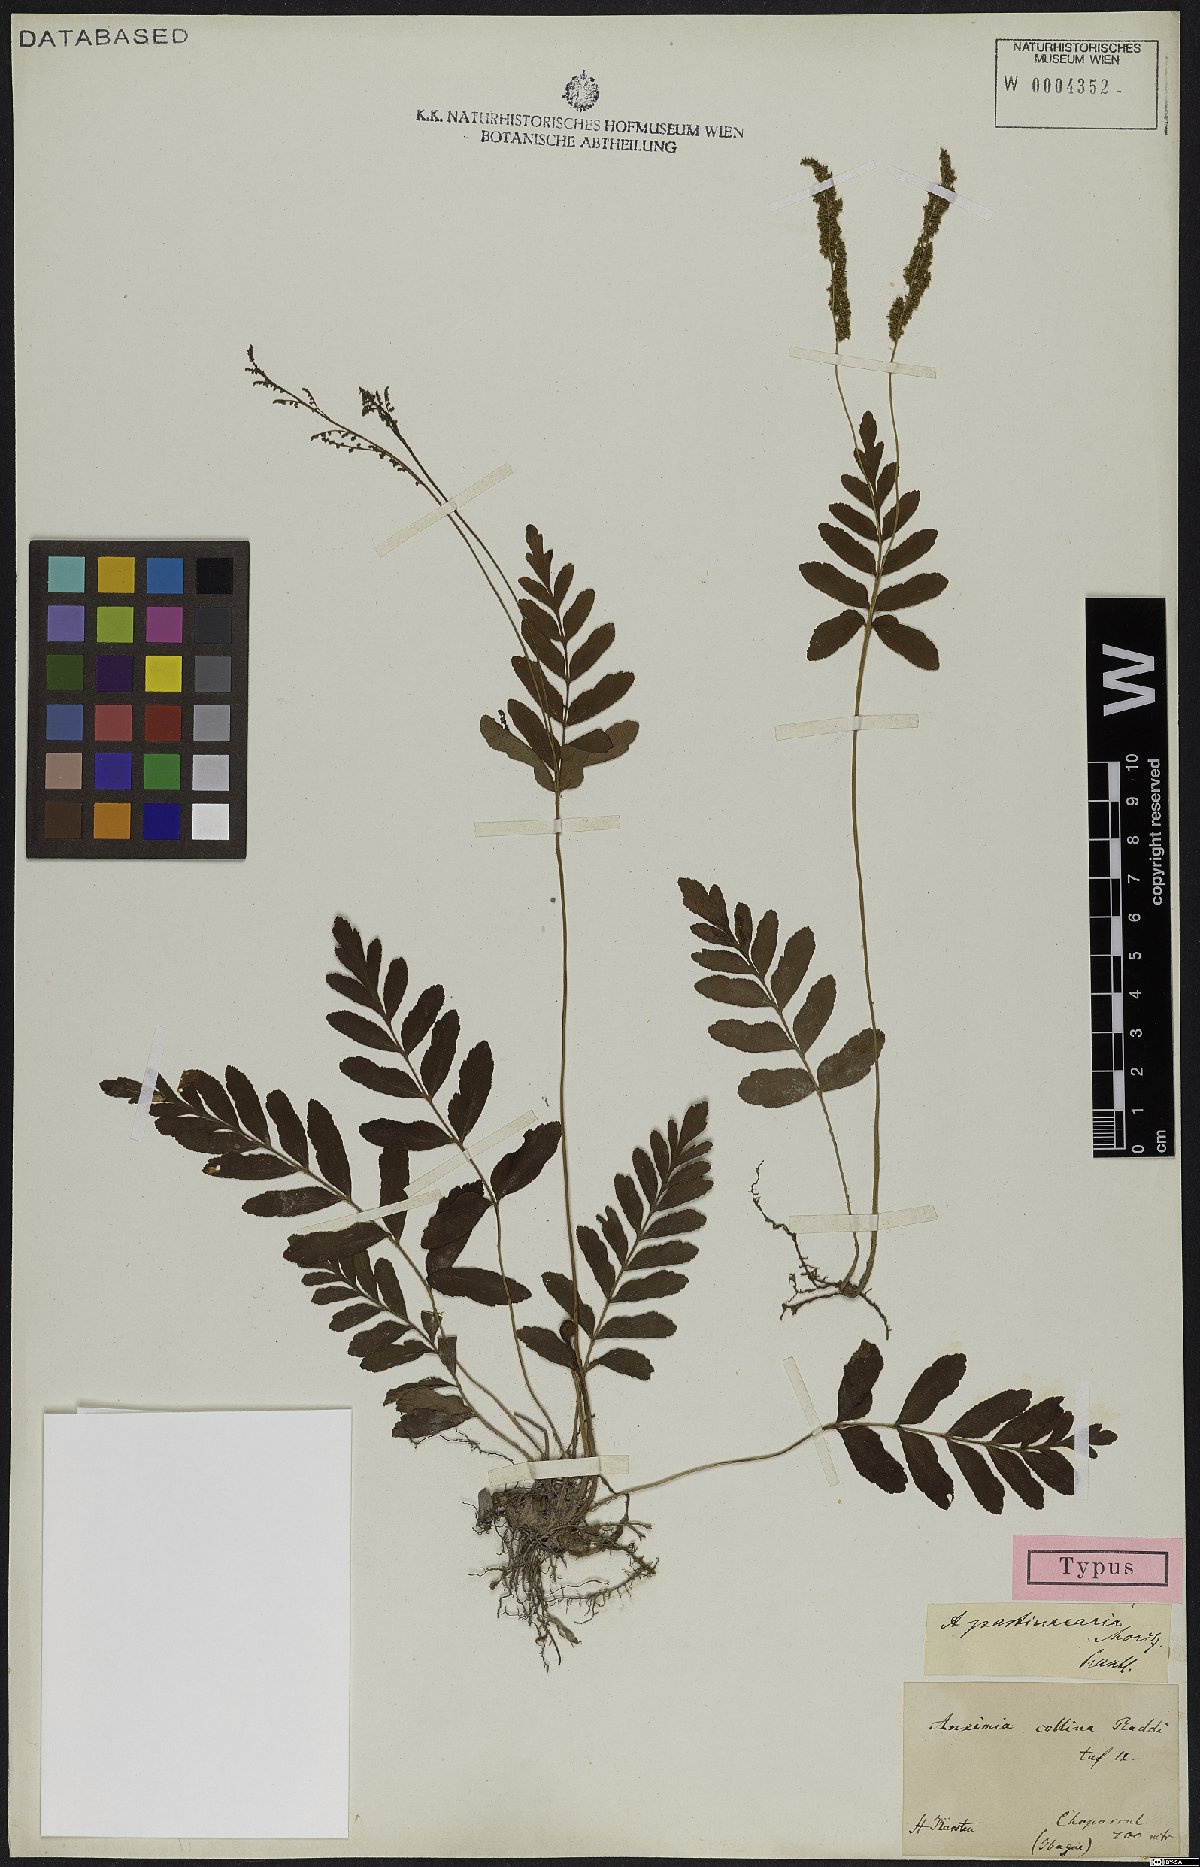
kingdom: Plantae
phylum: Tracheophyta
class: Polypodiopsida
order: Schizaeales
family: Anemiaceae
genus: Anemia
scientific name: Anemia hispida
